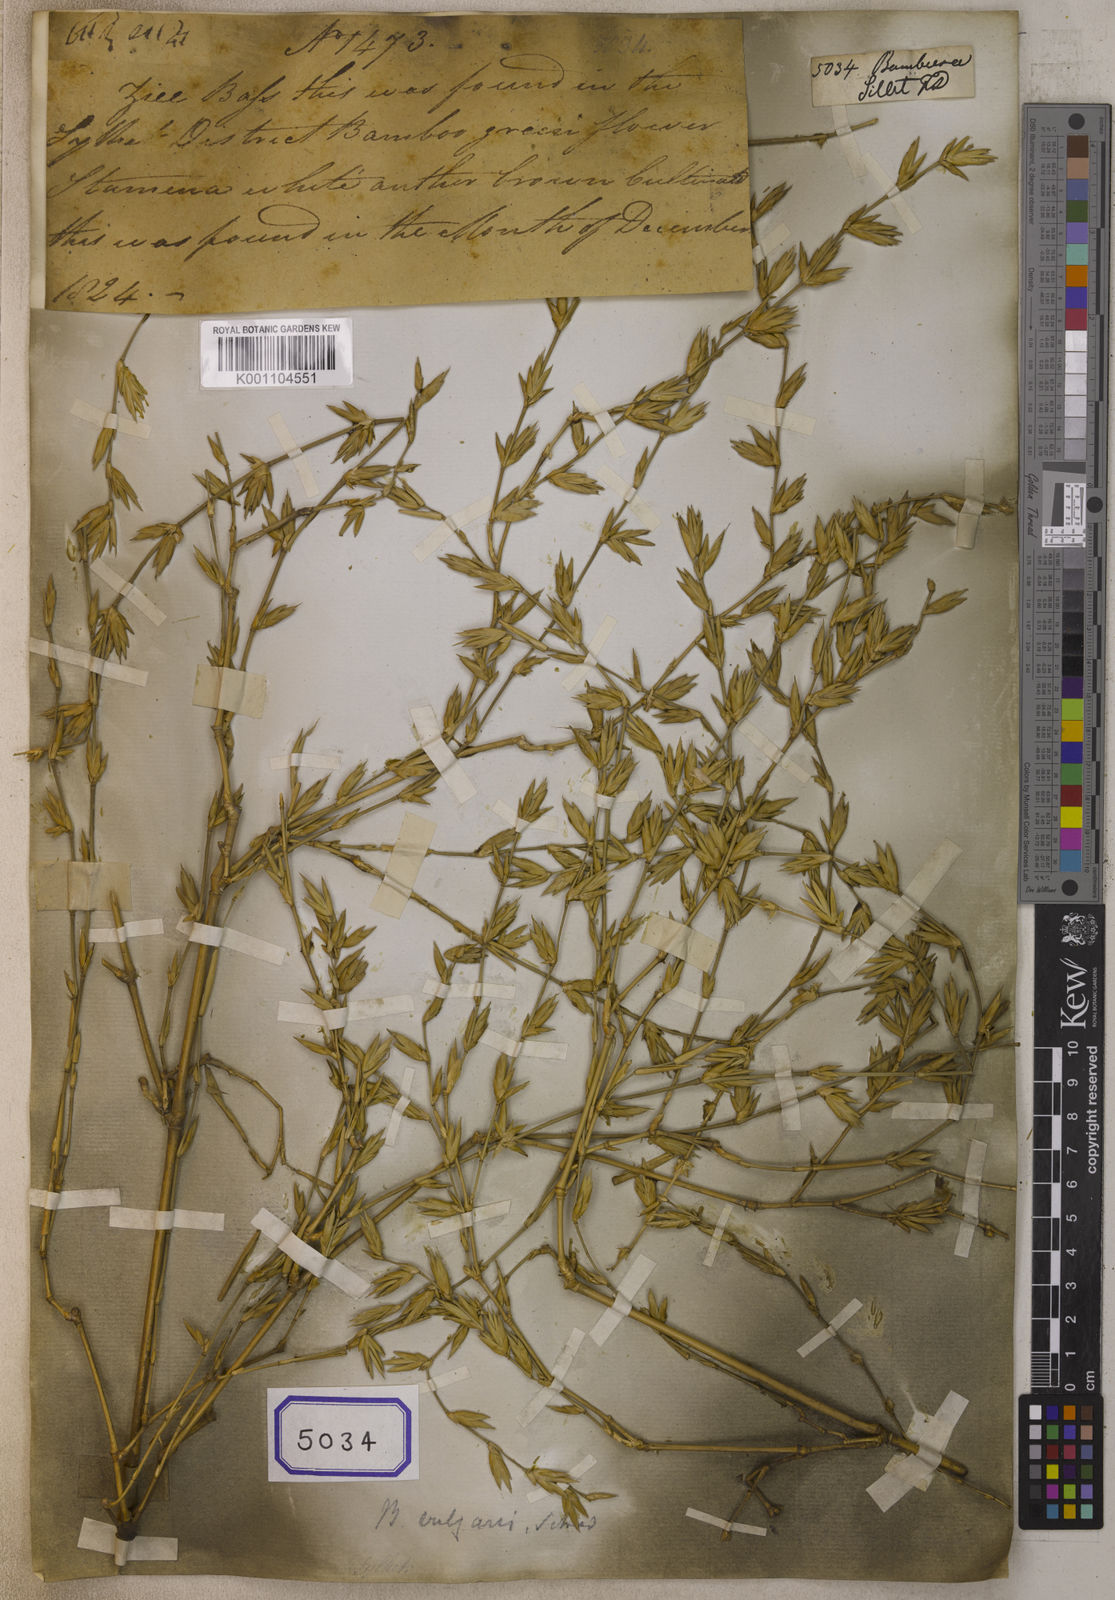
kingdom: Plantae
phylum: Tracheophyta
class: Liliopsida
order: Poales
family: Poaceae
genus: Bambusa
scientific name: Bambusa
